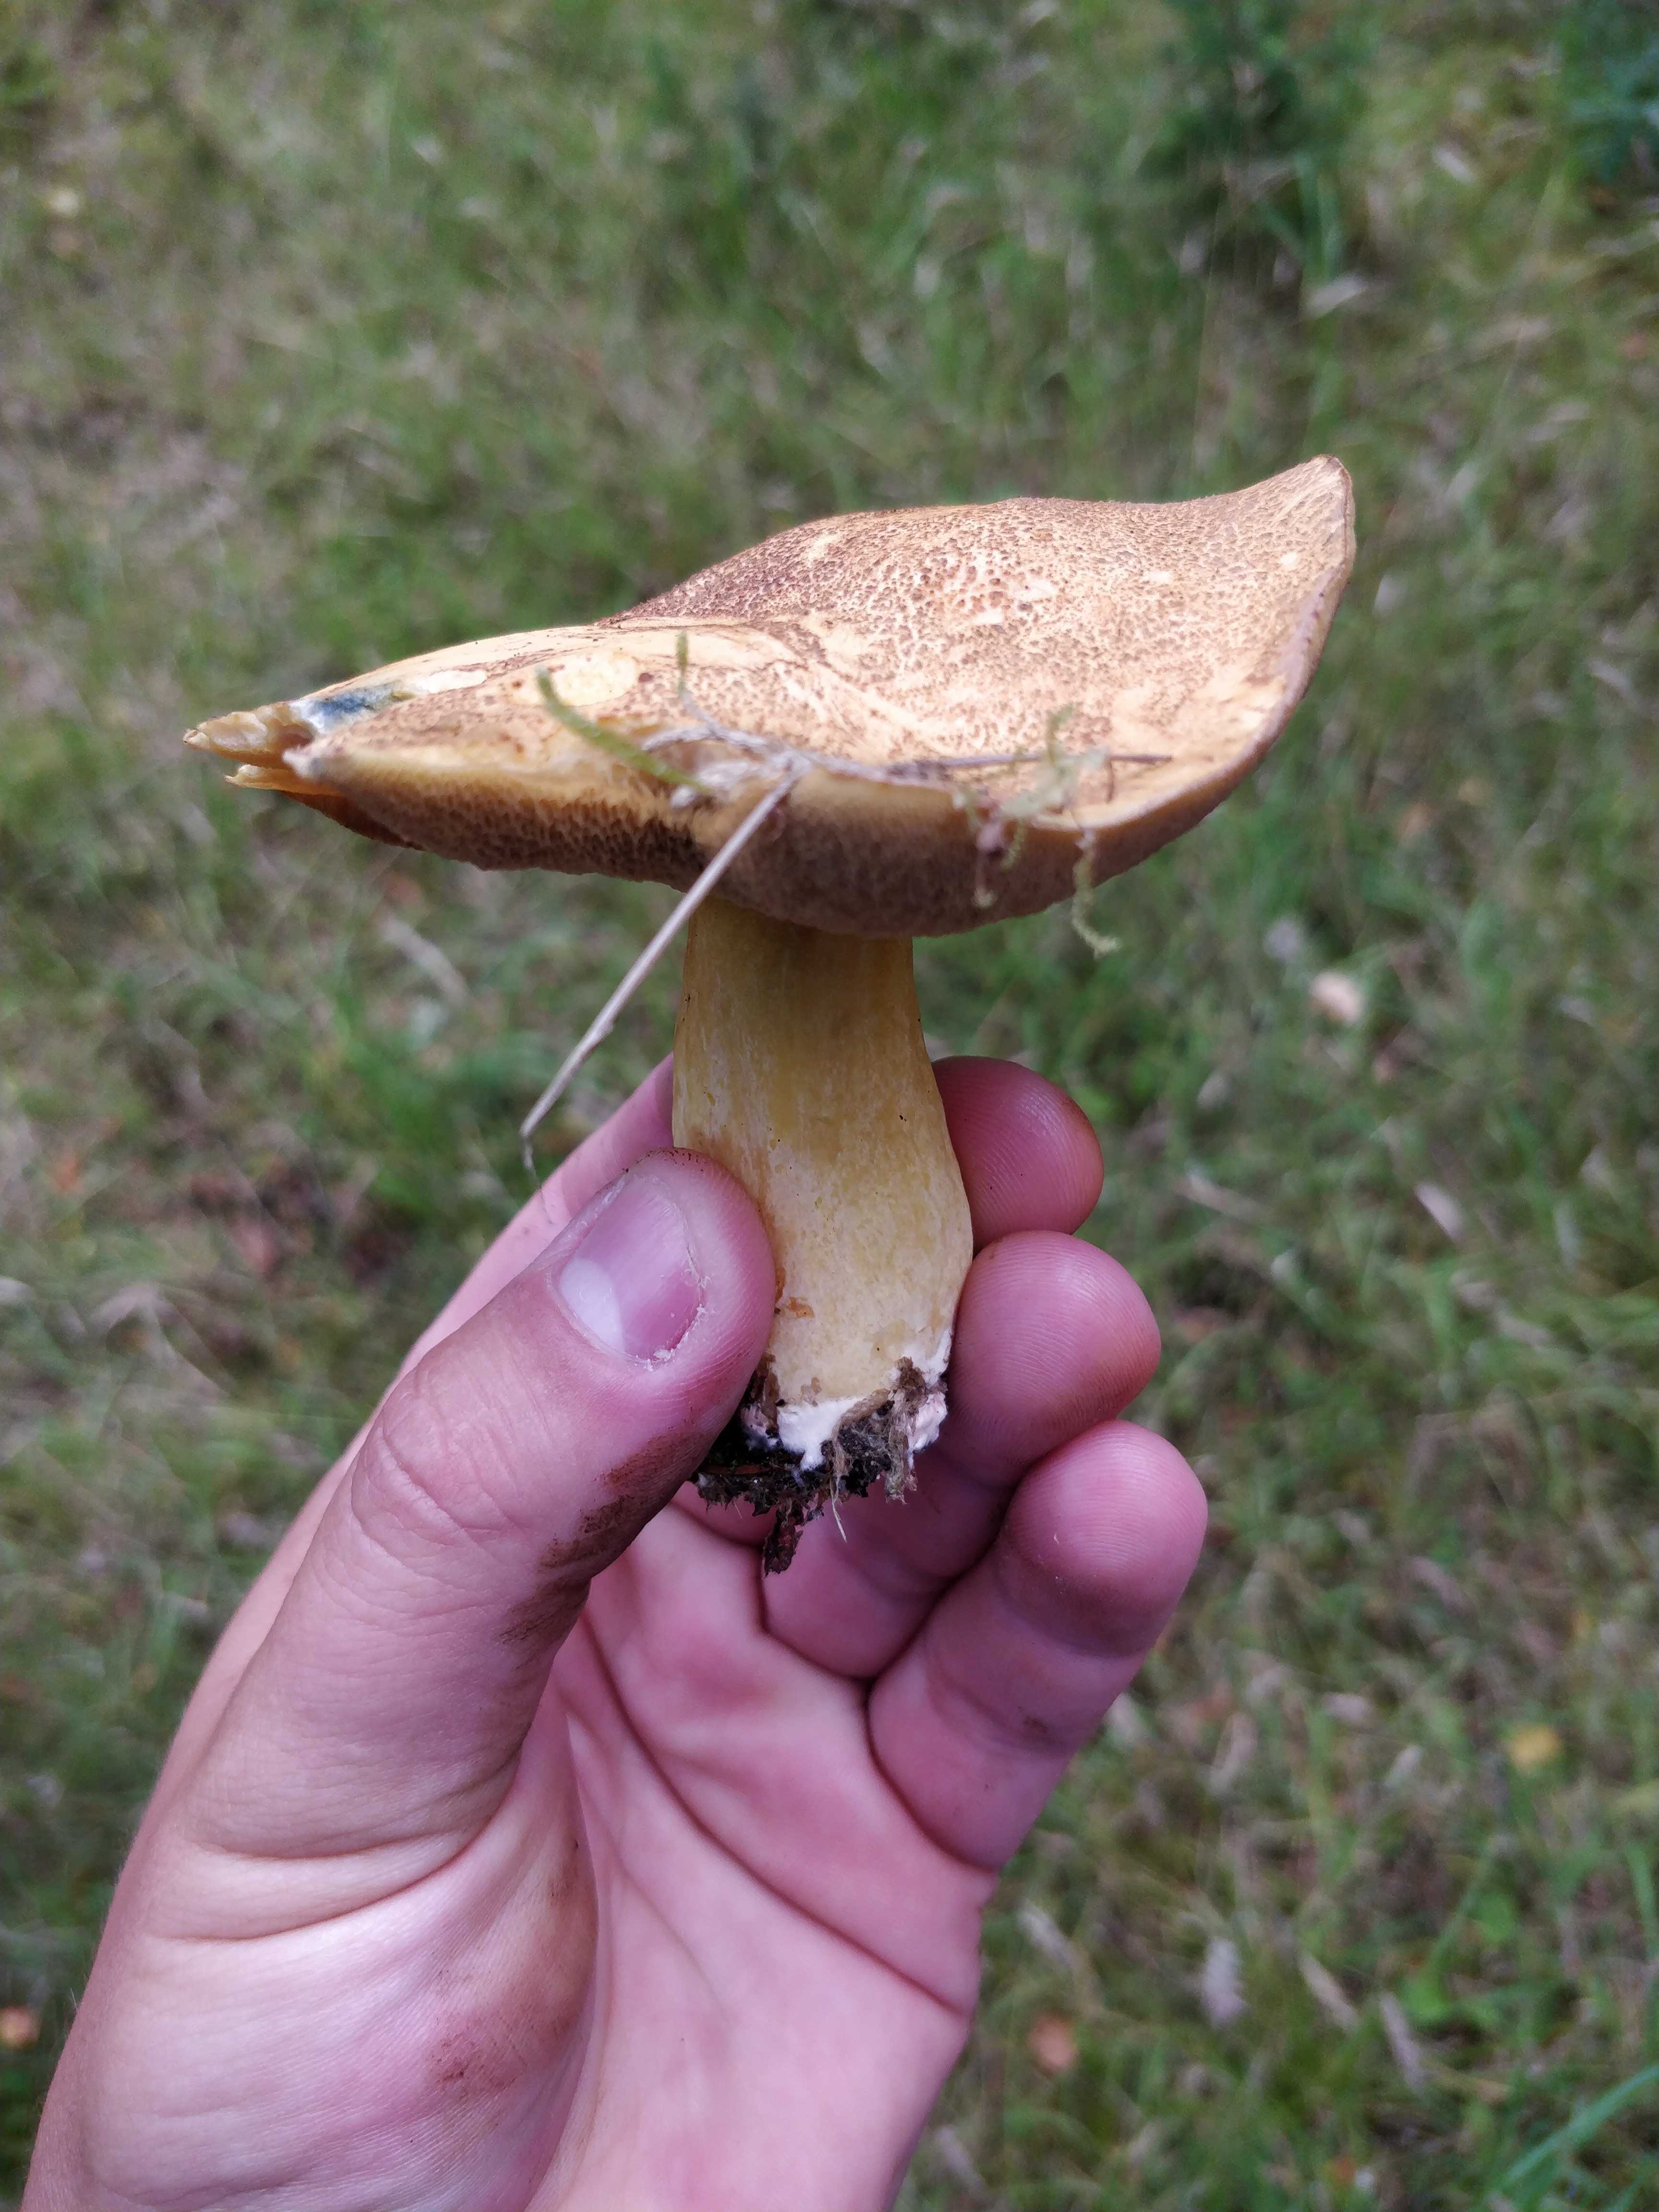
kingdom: Fungi
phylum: Basidiomycota
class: Agaricomycetes
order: Boletales
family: Suillaceae
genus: Suillus
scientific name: Suillus variegatus
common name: broget slimrørhat
